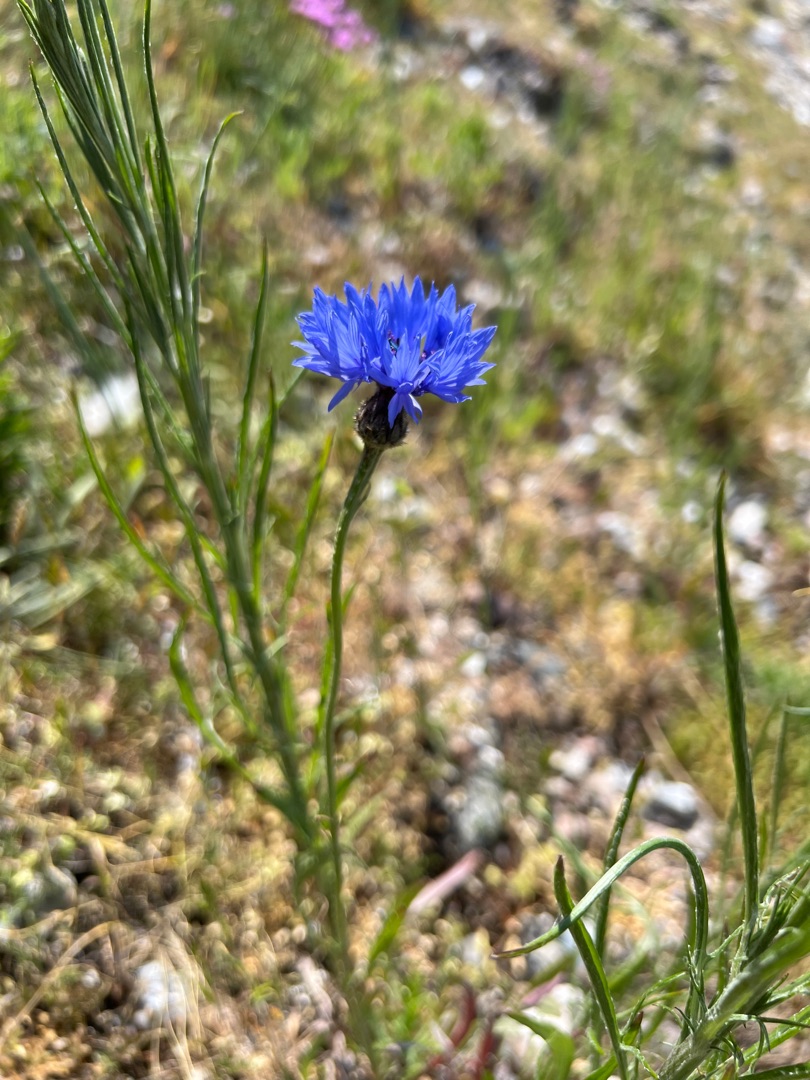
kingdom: Plantae
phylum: Tracheophyta
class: Magnoliopsida
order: Asterales
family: Asteraceae
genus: Centaurea
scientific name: Centaurea cyanus
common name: Kornblomst
